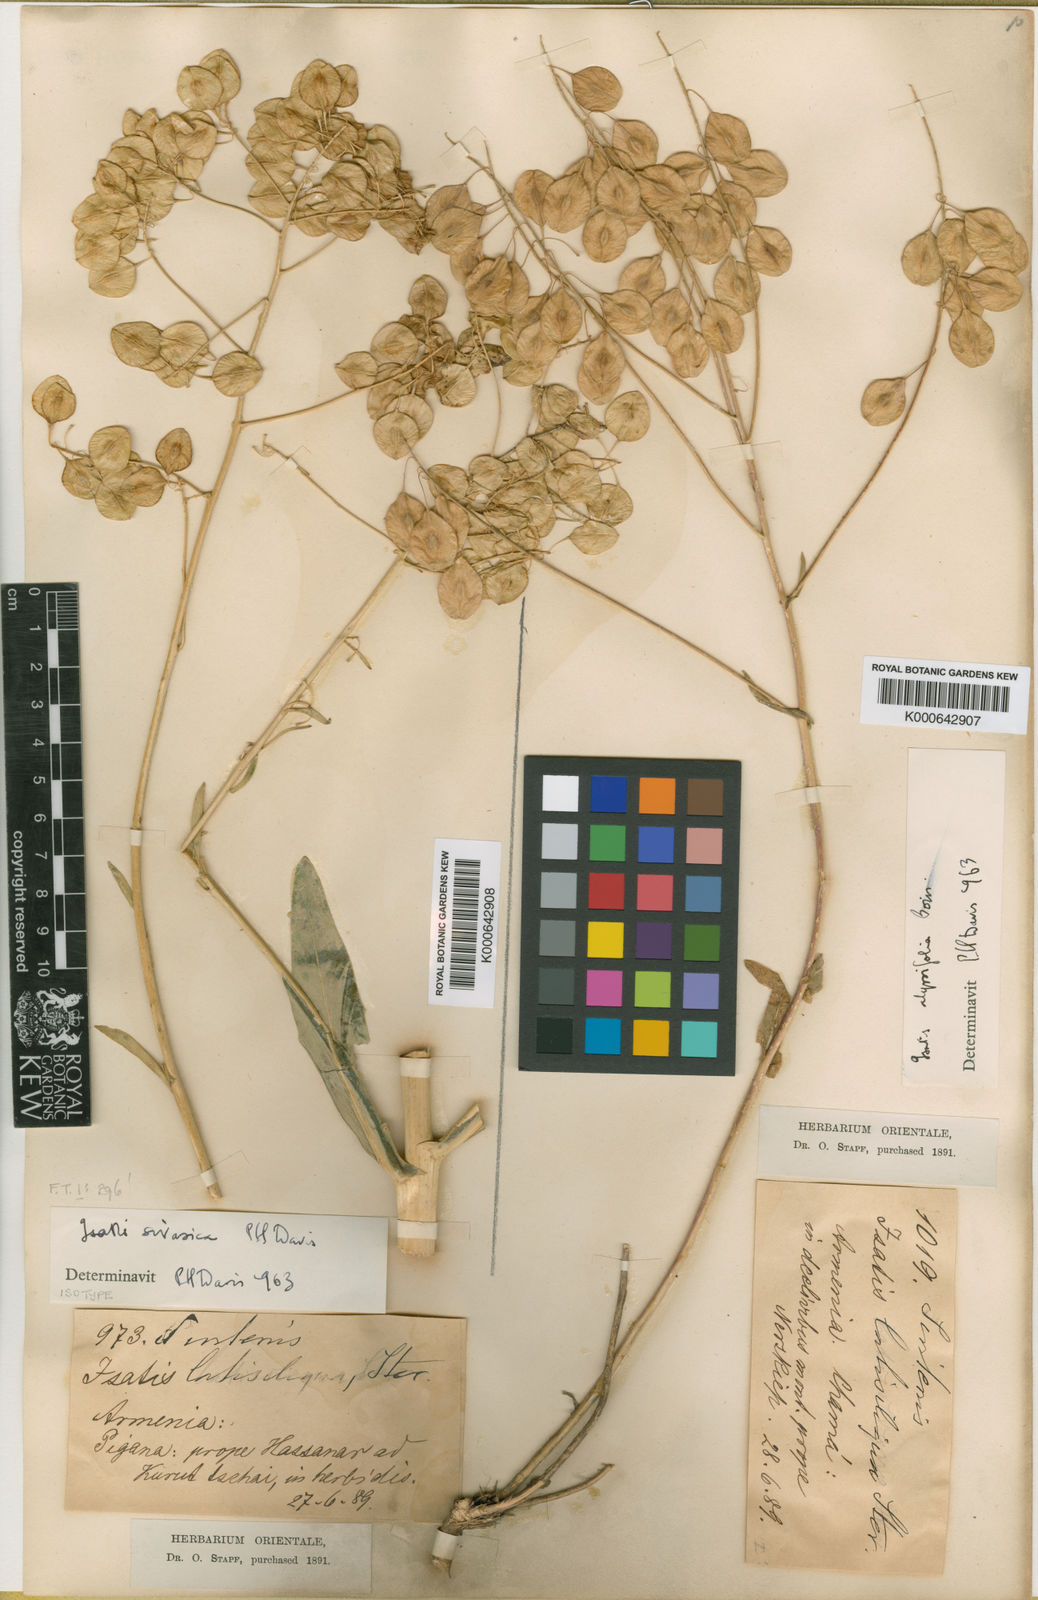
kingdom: Plantae
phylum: Tracheophyta
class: Magnoliopsida
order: Brassicales
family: Brassicaceae
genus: Isatis
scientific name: Isatis sivasica
